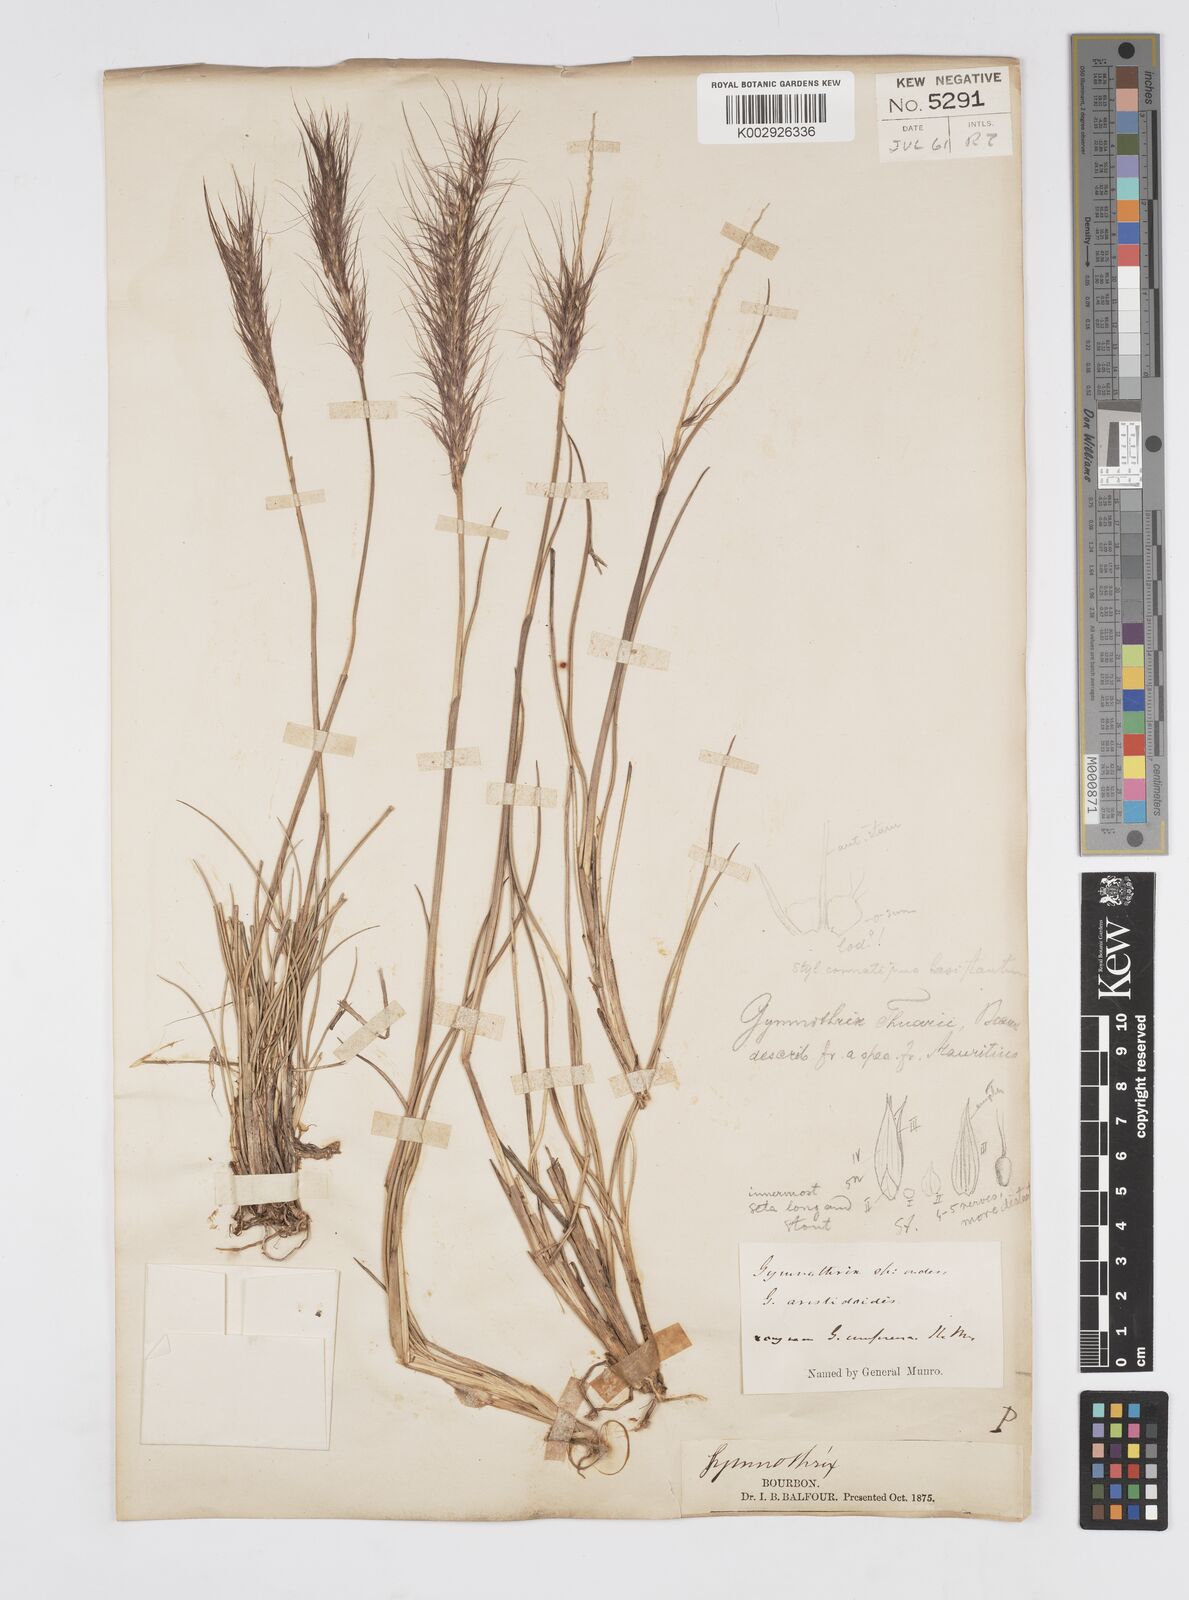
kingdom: Plantae
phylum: Tracheophyta
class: Liliopsida
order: Poales
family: Poaceae
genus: Cenchrus
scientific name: Cenchrus cafer
